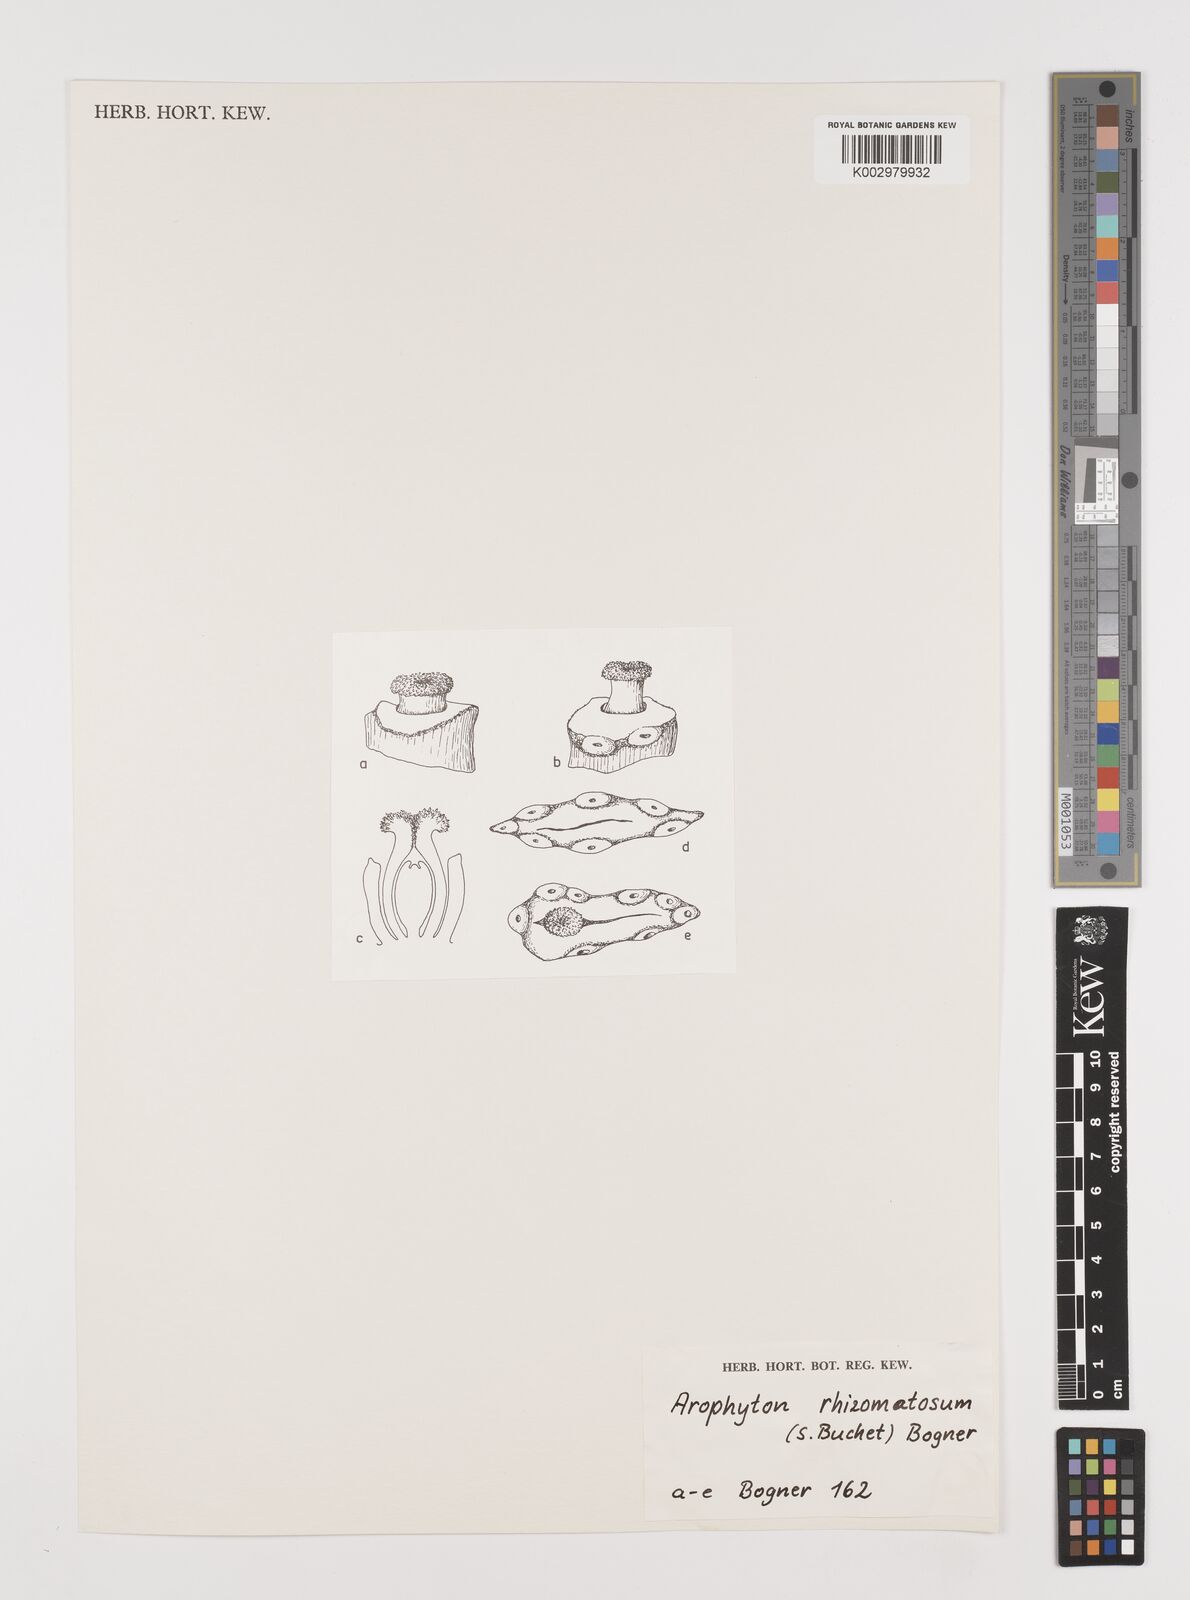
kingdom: Plantae
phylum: Tracheophyta
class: Liliopsida
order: Alismatales
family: Araceae
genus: Arophyton
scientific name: Arophyton rhizomatosum
